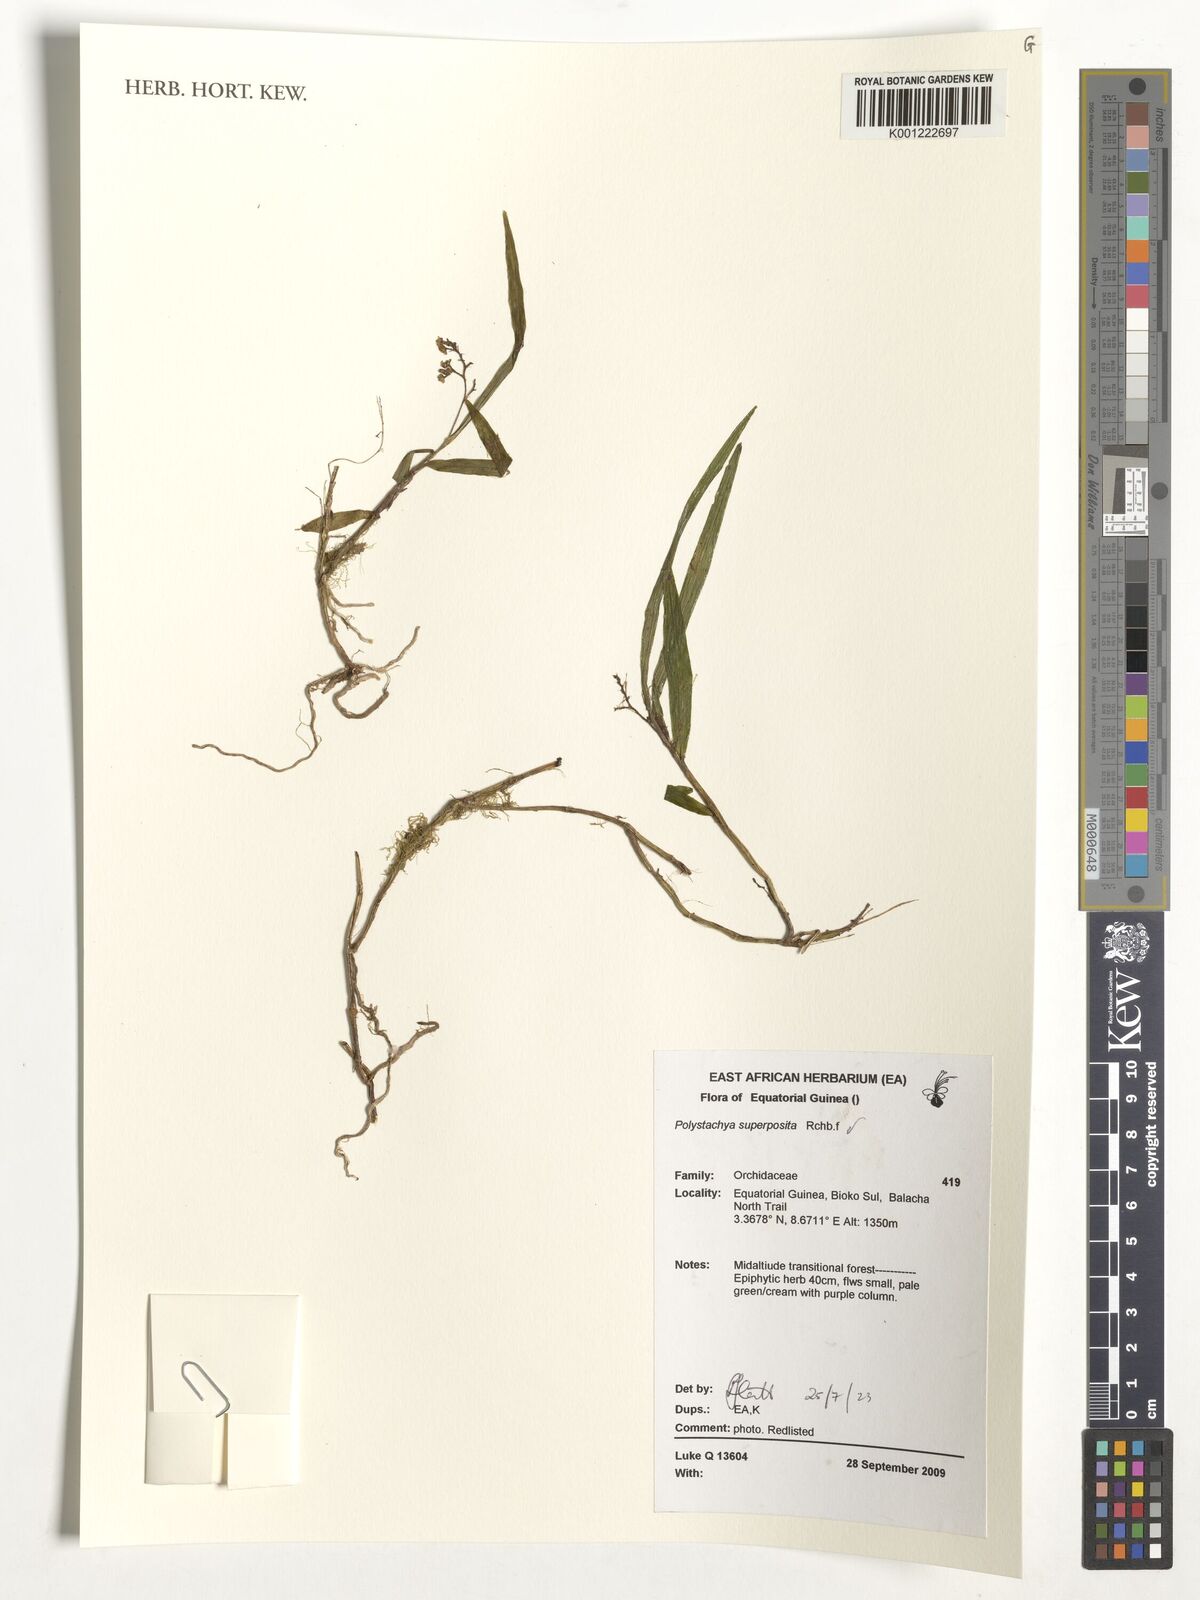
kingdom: Plantae
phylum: Tracheophyta
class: Liliopsida
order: Asparagales
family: Orchidaceae
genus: Polystachya
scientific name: Polystachya superposita
